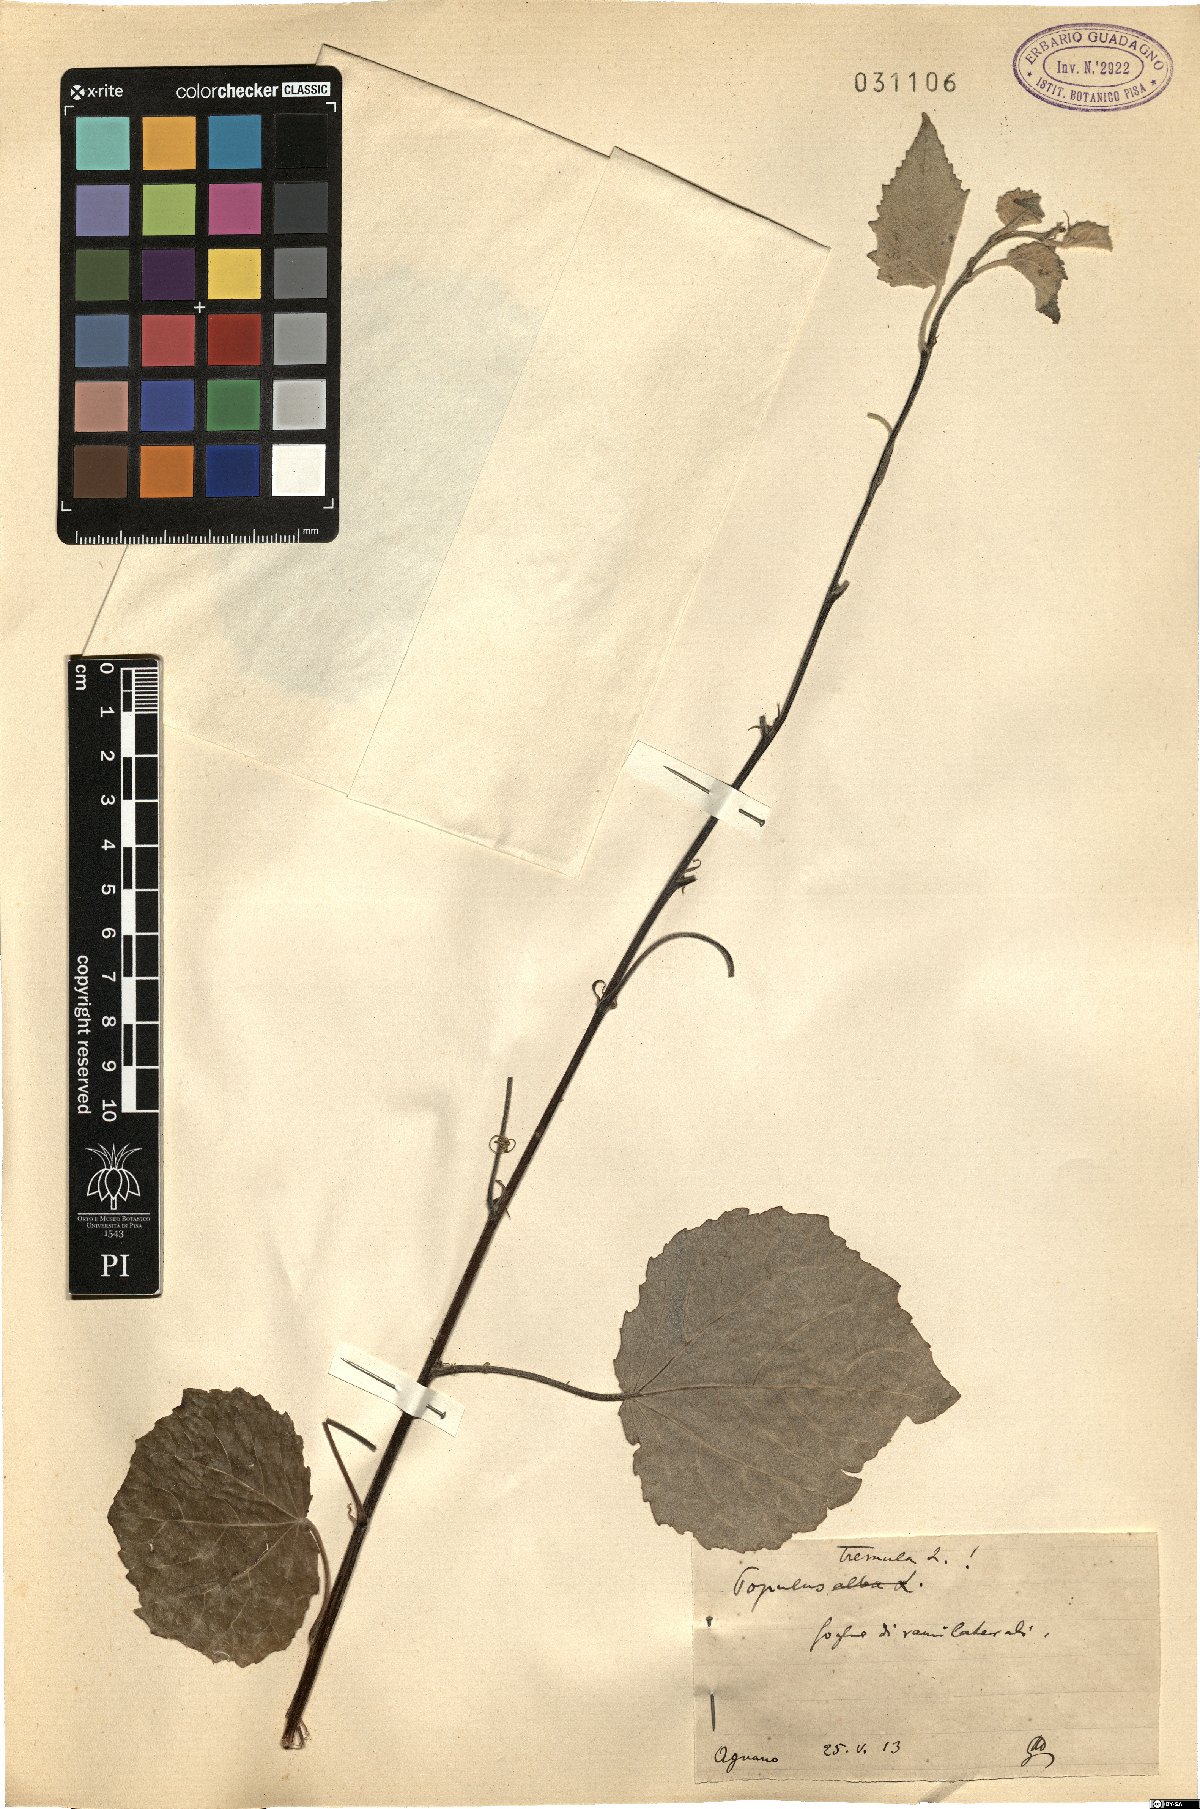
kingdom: Plantae
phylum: Tracheophyta
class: Magnoliopsida
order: Malpighiales
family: Salicaceae
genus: Populus
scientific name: Populus tremula
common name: European aspen
